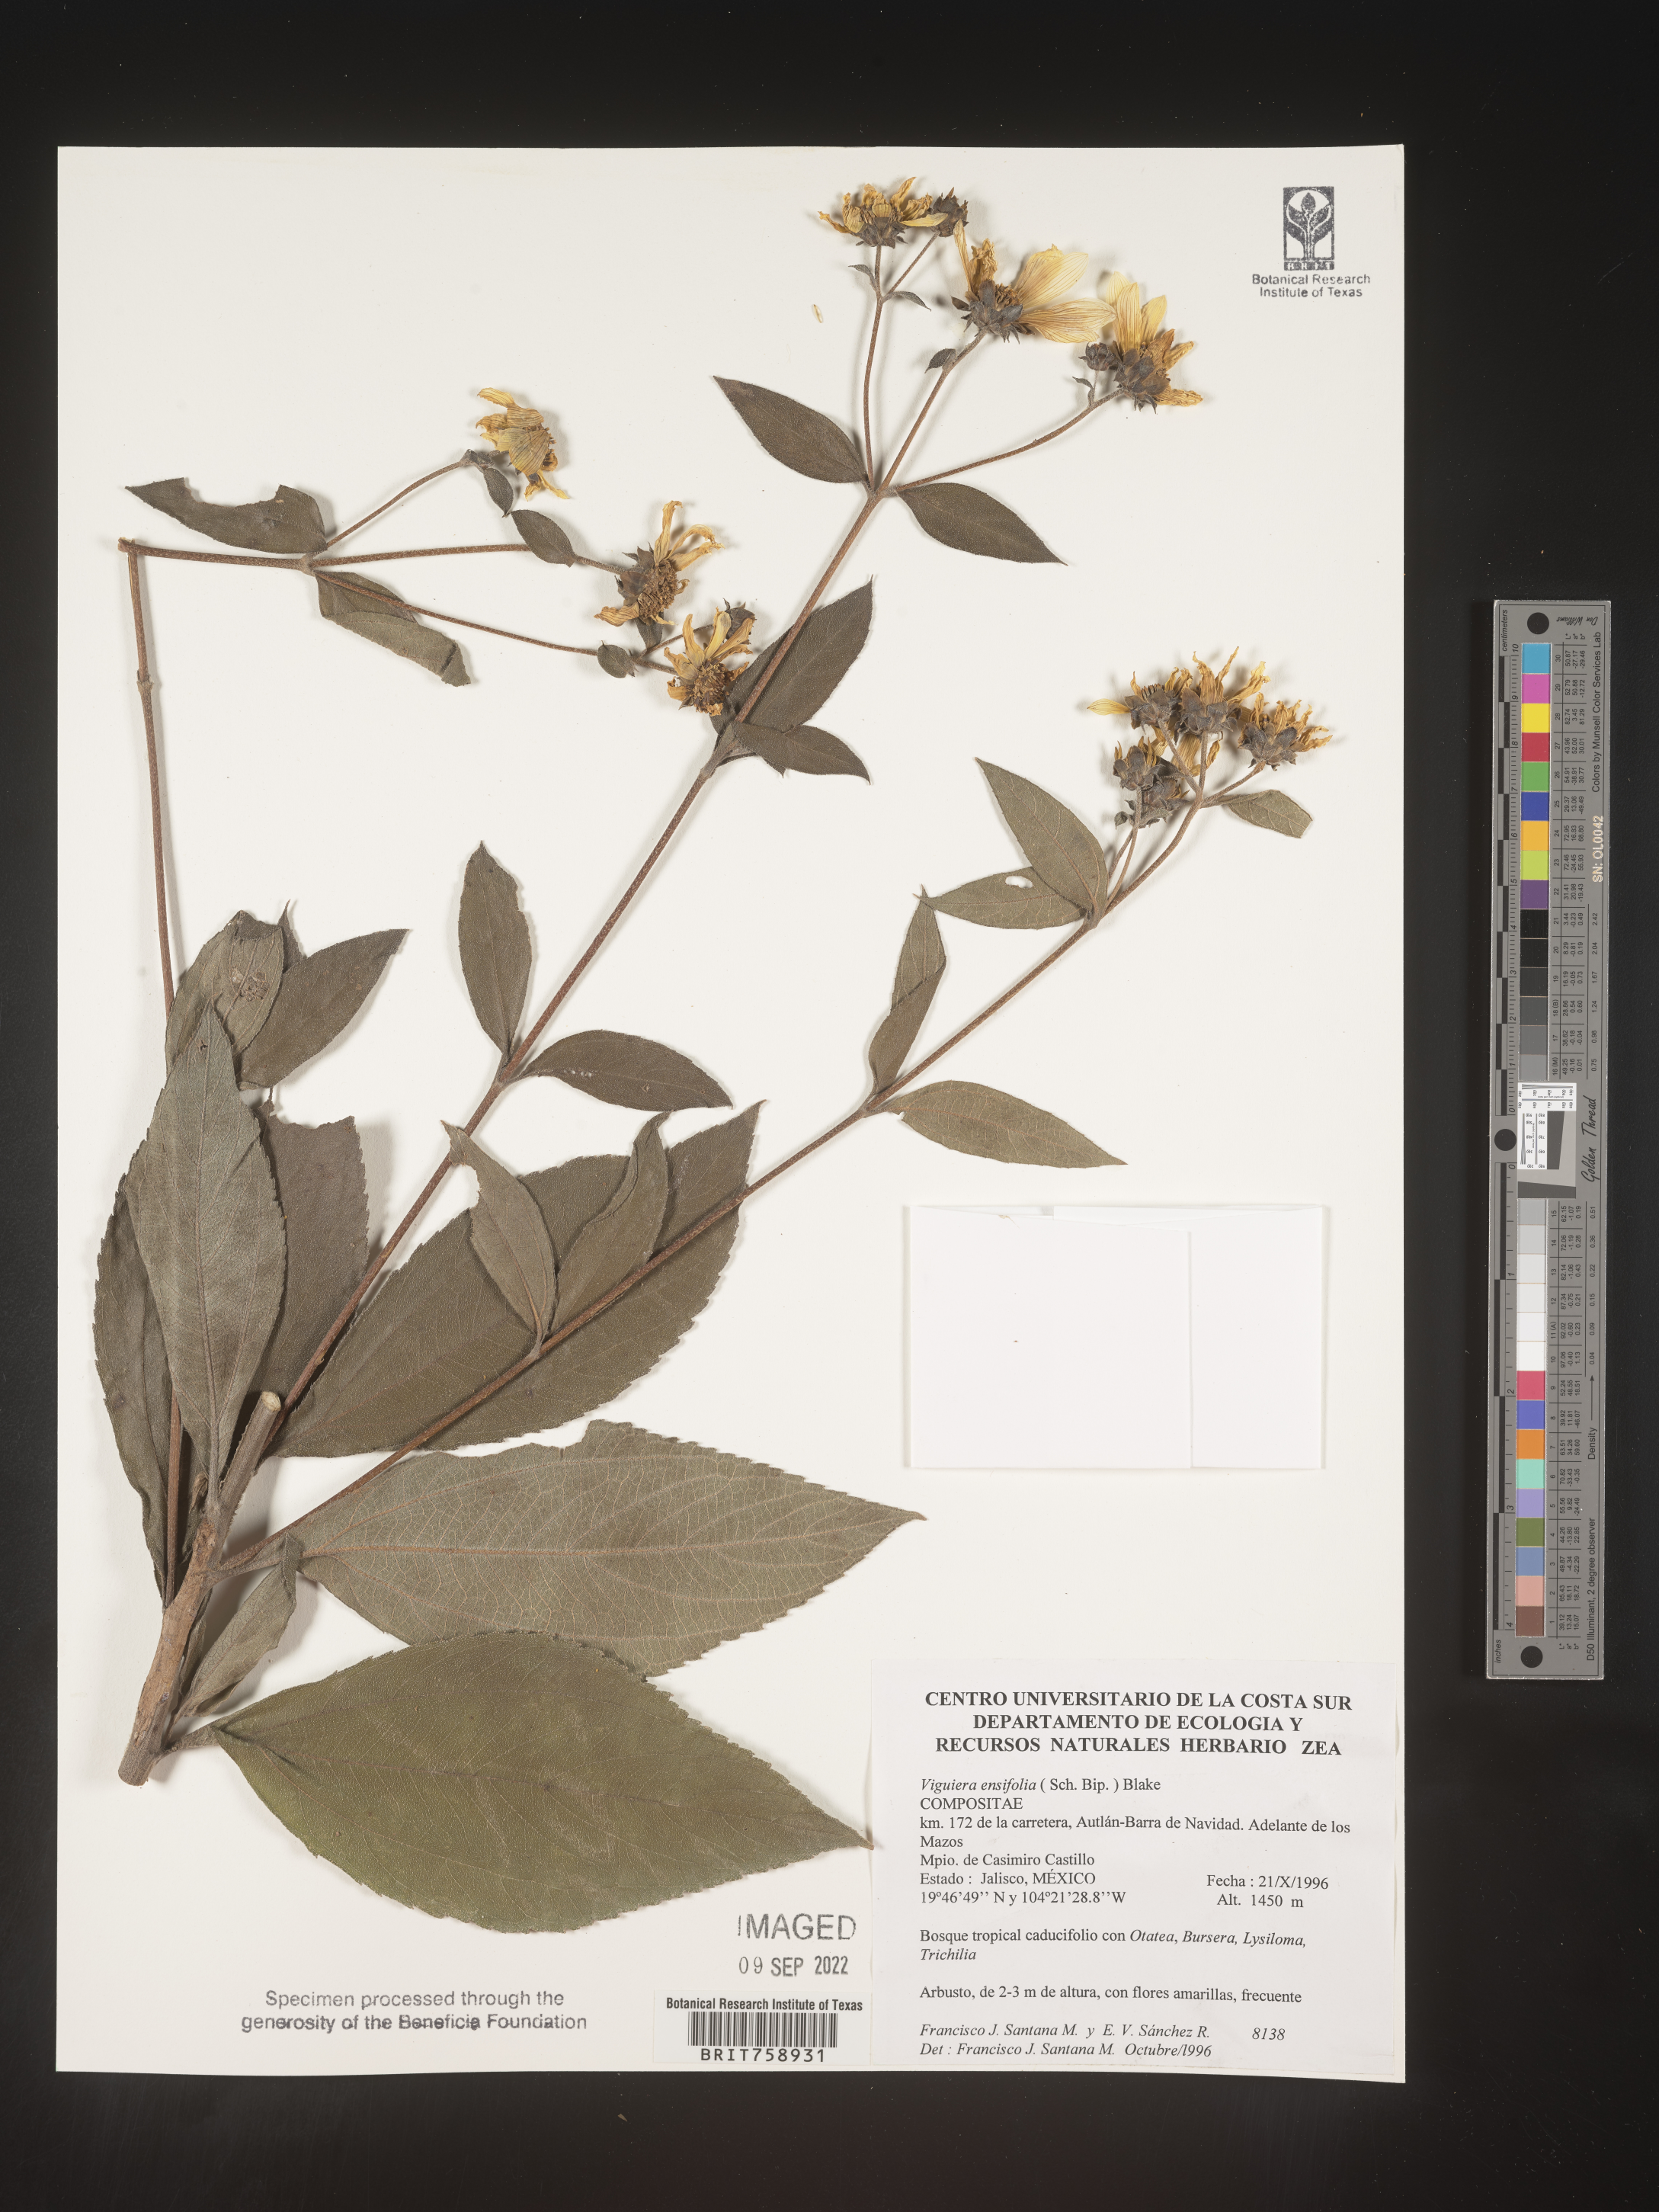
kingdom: Plantae
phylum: Tracheophyta
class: Magnoliopsida
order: Asterales
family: Asteraceae
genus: Viguiera
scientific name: Viguiera
